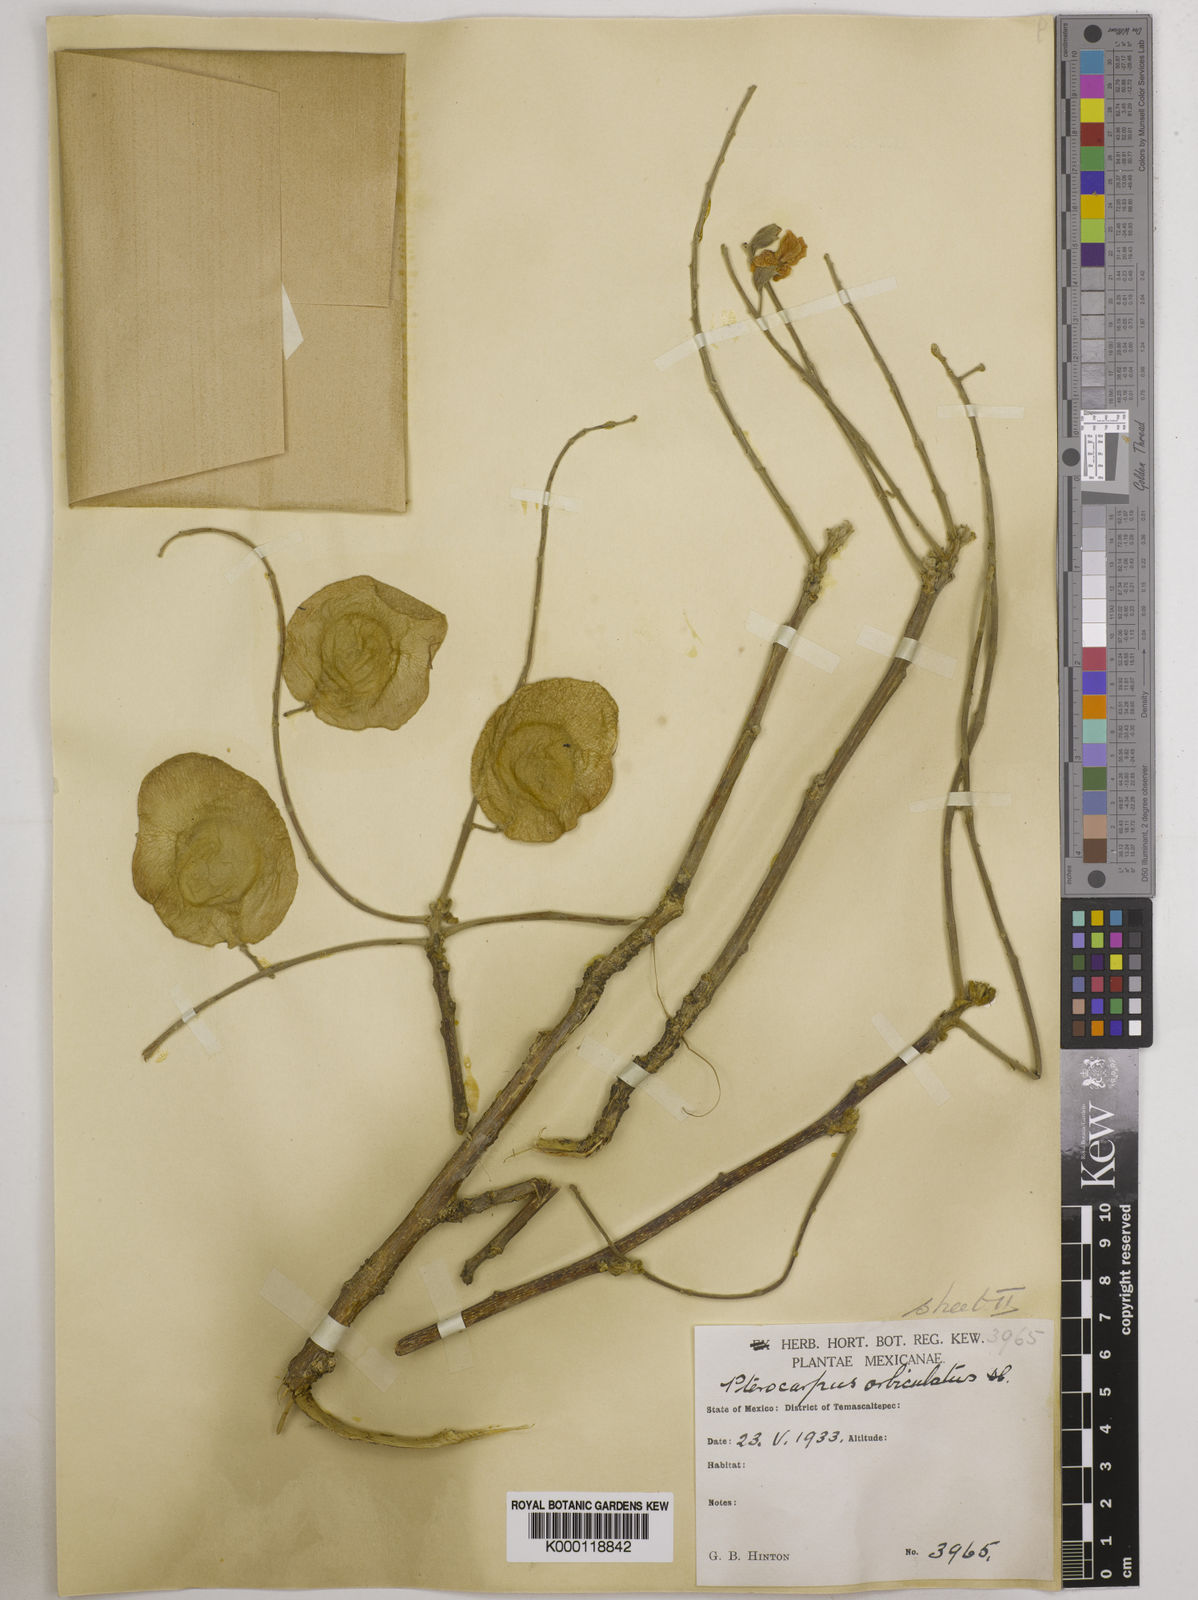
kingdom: Plantae
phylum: Tracheophyta
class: Magnoliopsida
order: Fabales
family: Fabaceae
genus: Pterocarpus
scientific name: Pterocarpus orbiculatus
